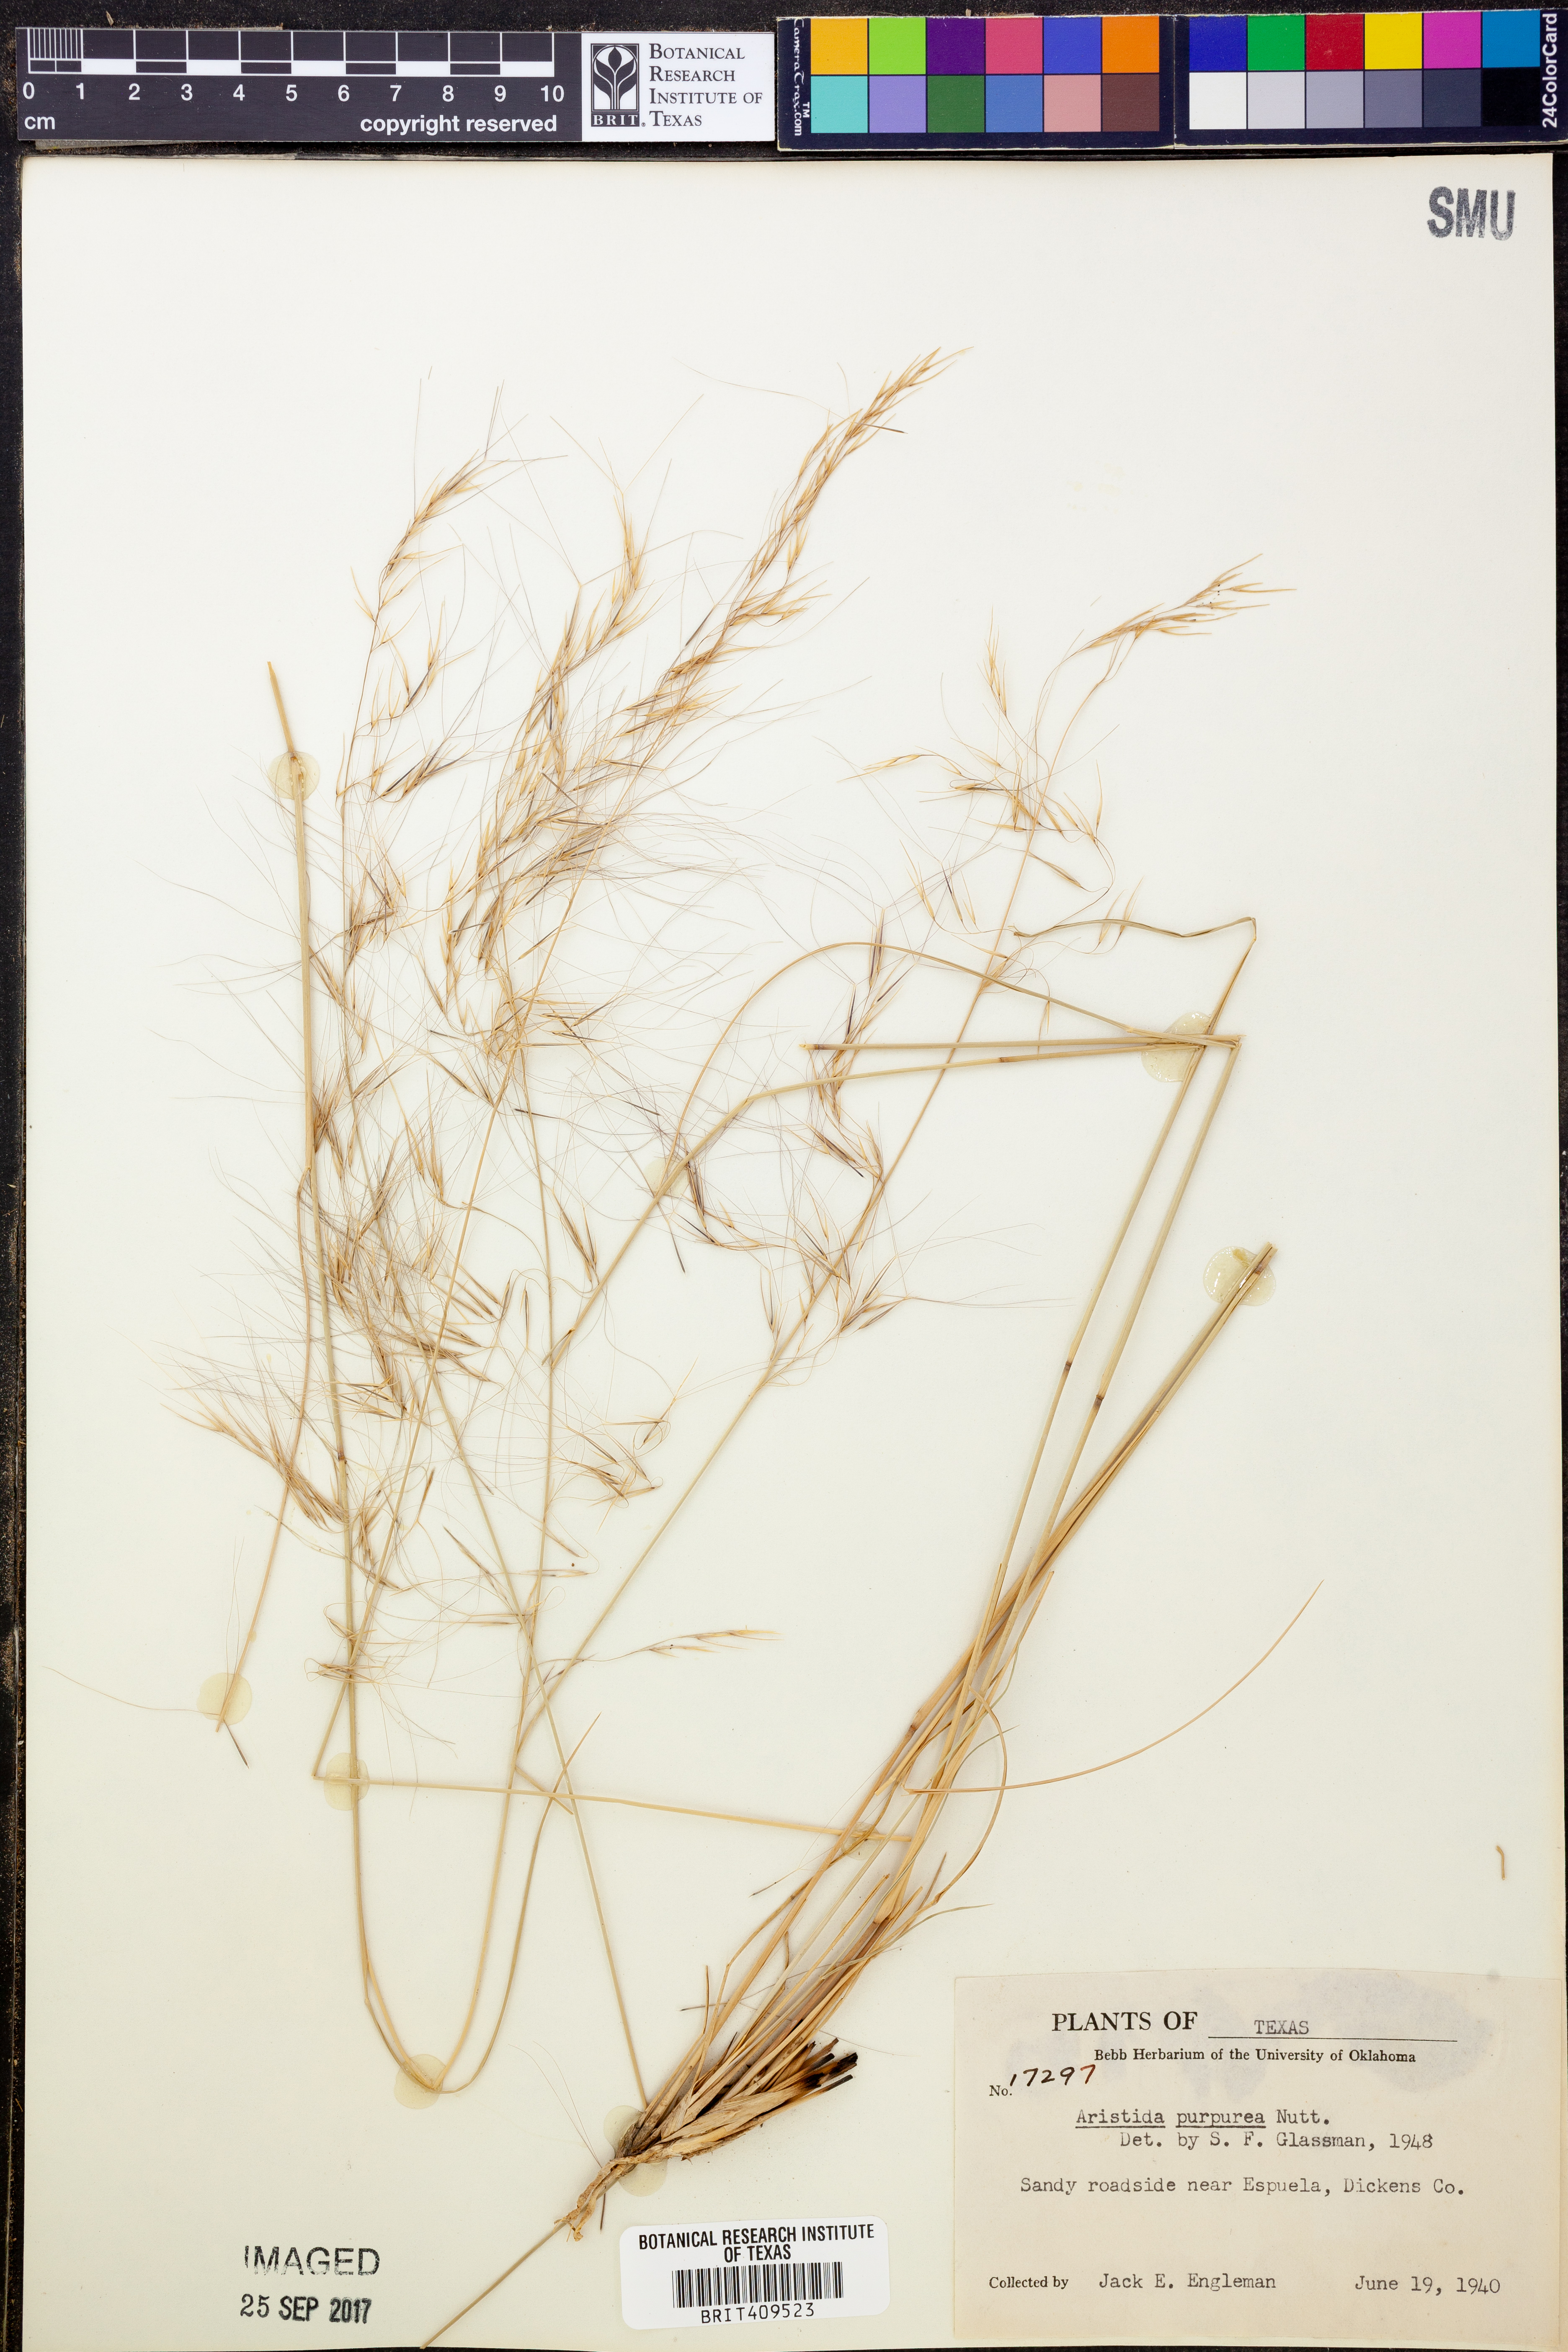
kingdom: Plantae
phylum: Tracheophyta
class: Liliopsida
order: Poales
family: Poaceae
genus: Aristida
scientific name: Aristida purpurea
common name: Purple threeawn
